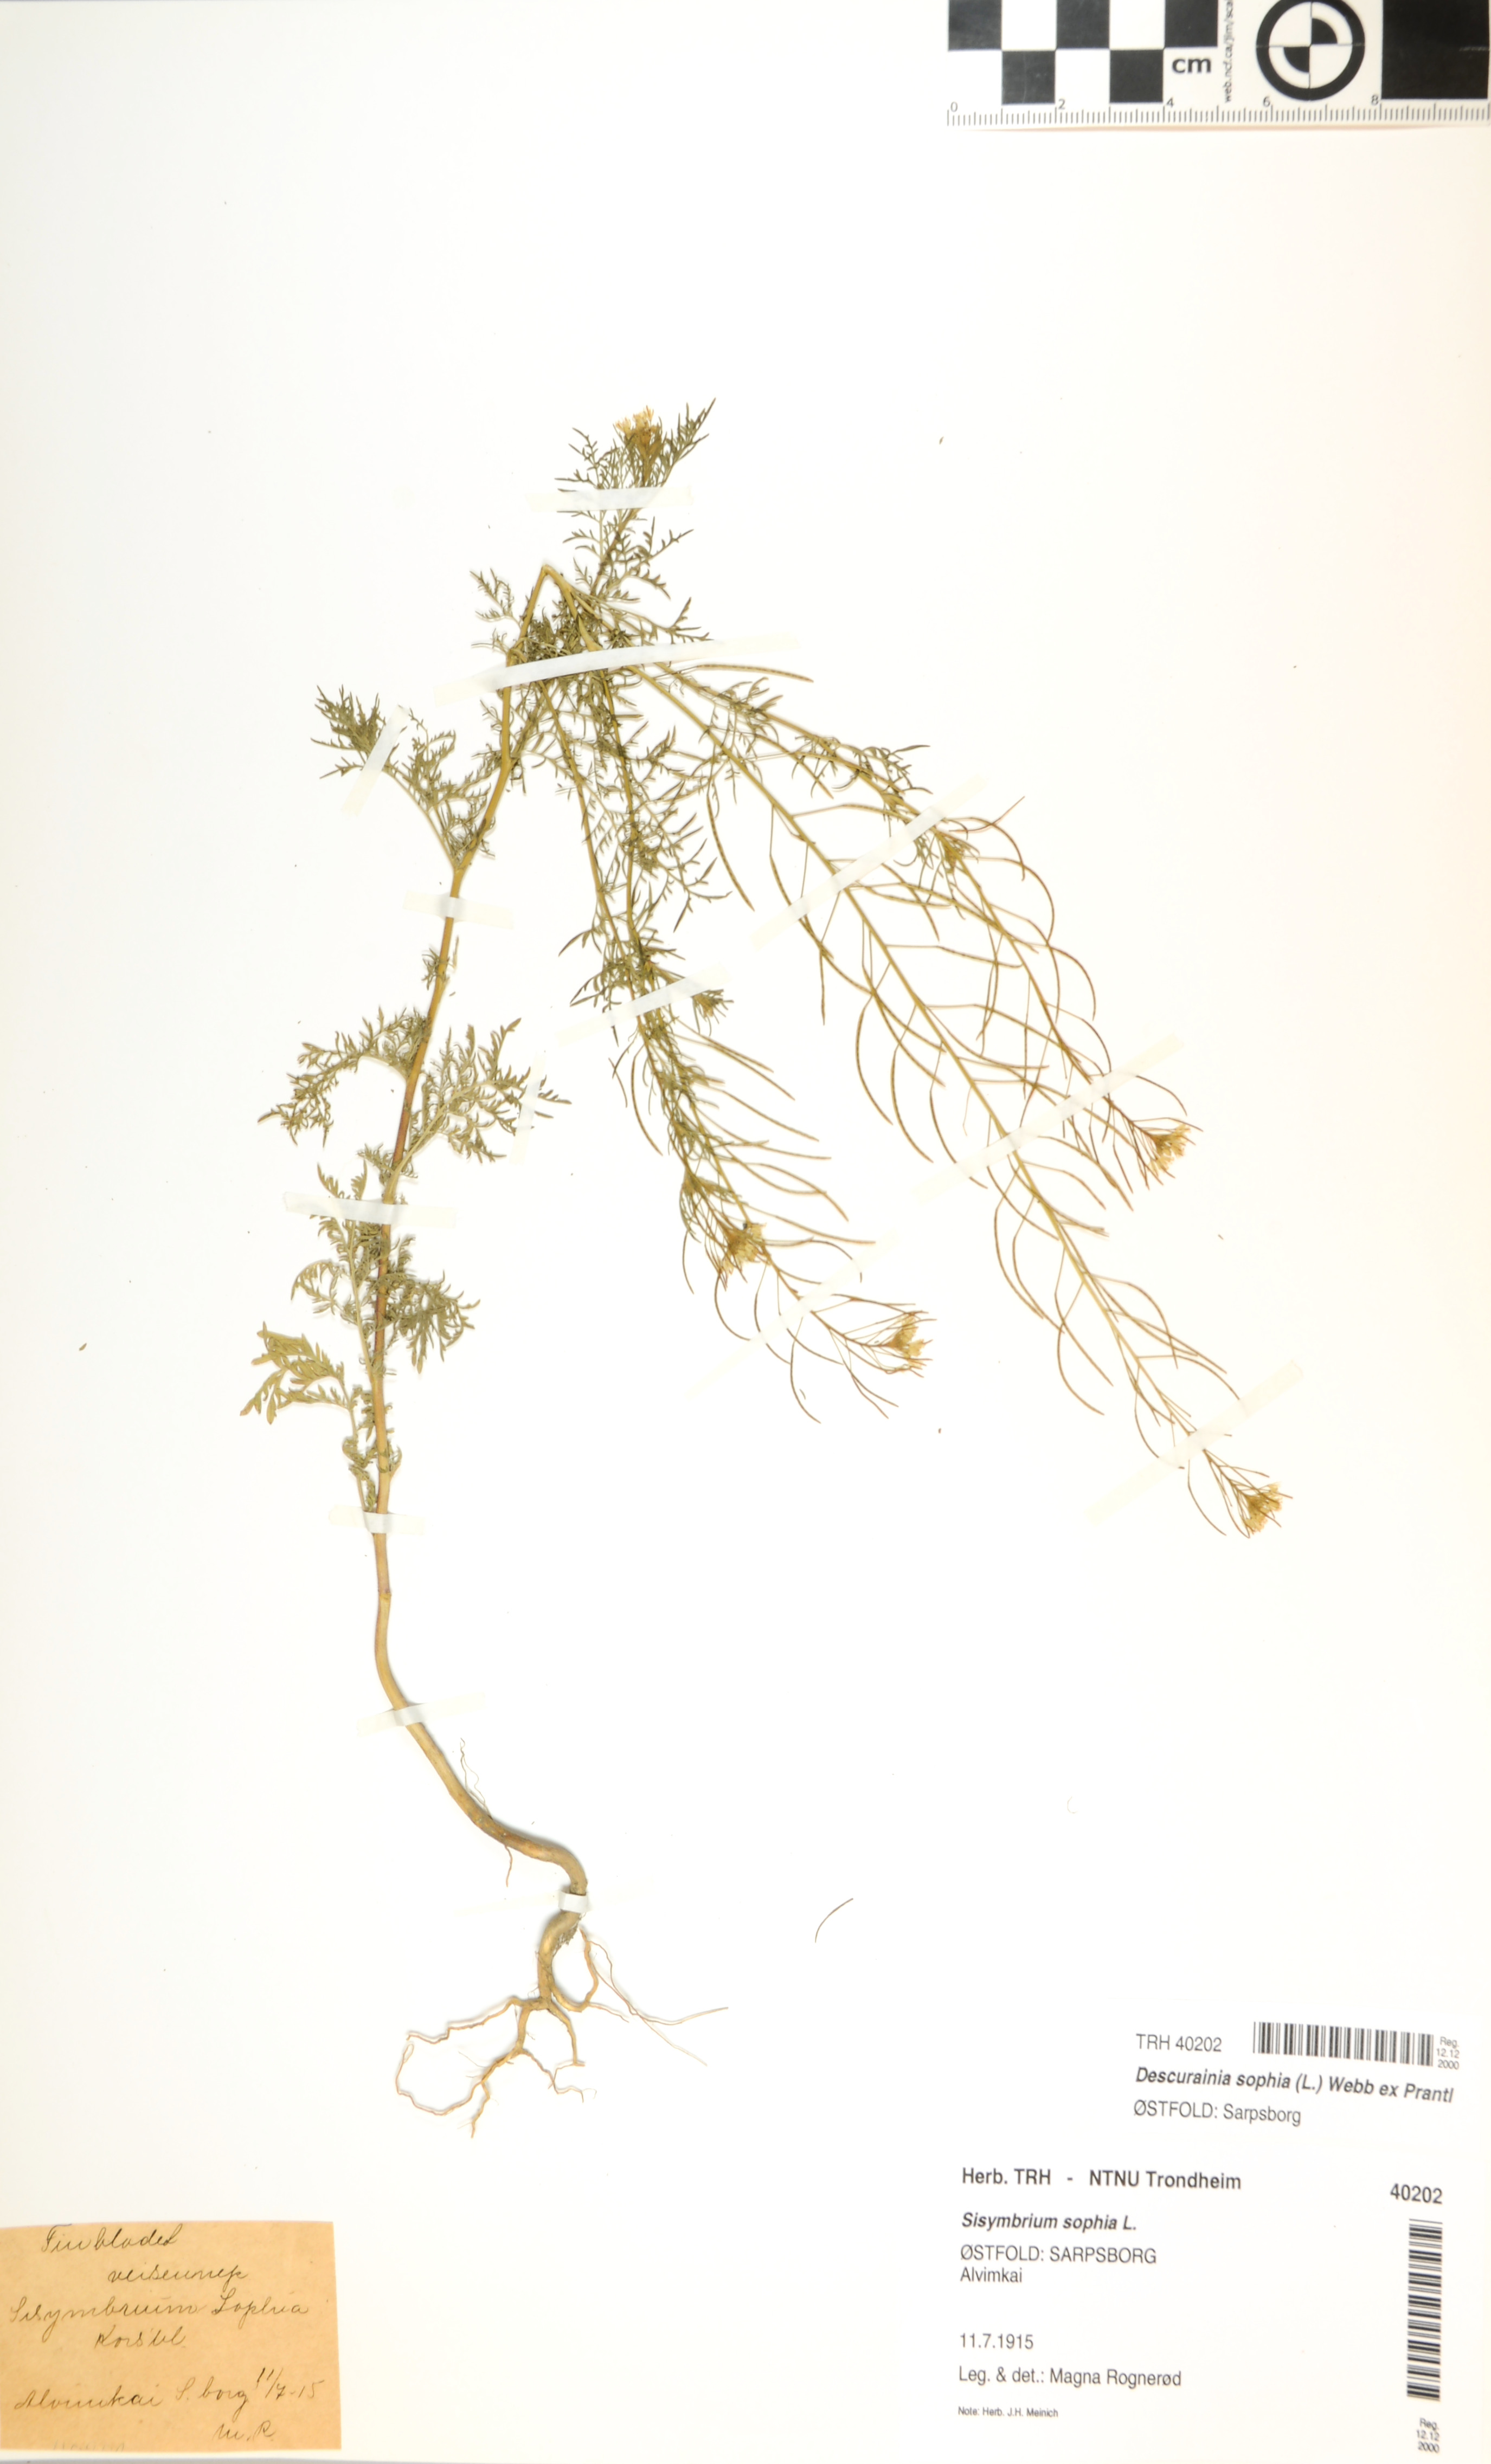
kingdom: Plantae
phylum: Tracheophyta
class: Magnoliopsida
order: Brassicales
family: Brassicaceae
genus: Descurainia
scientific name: Descurainia sophia
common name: Flixweed
